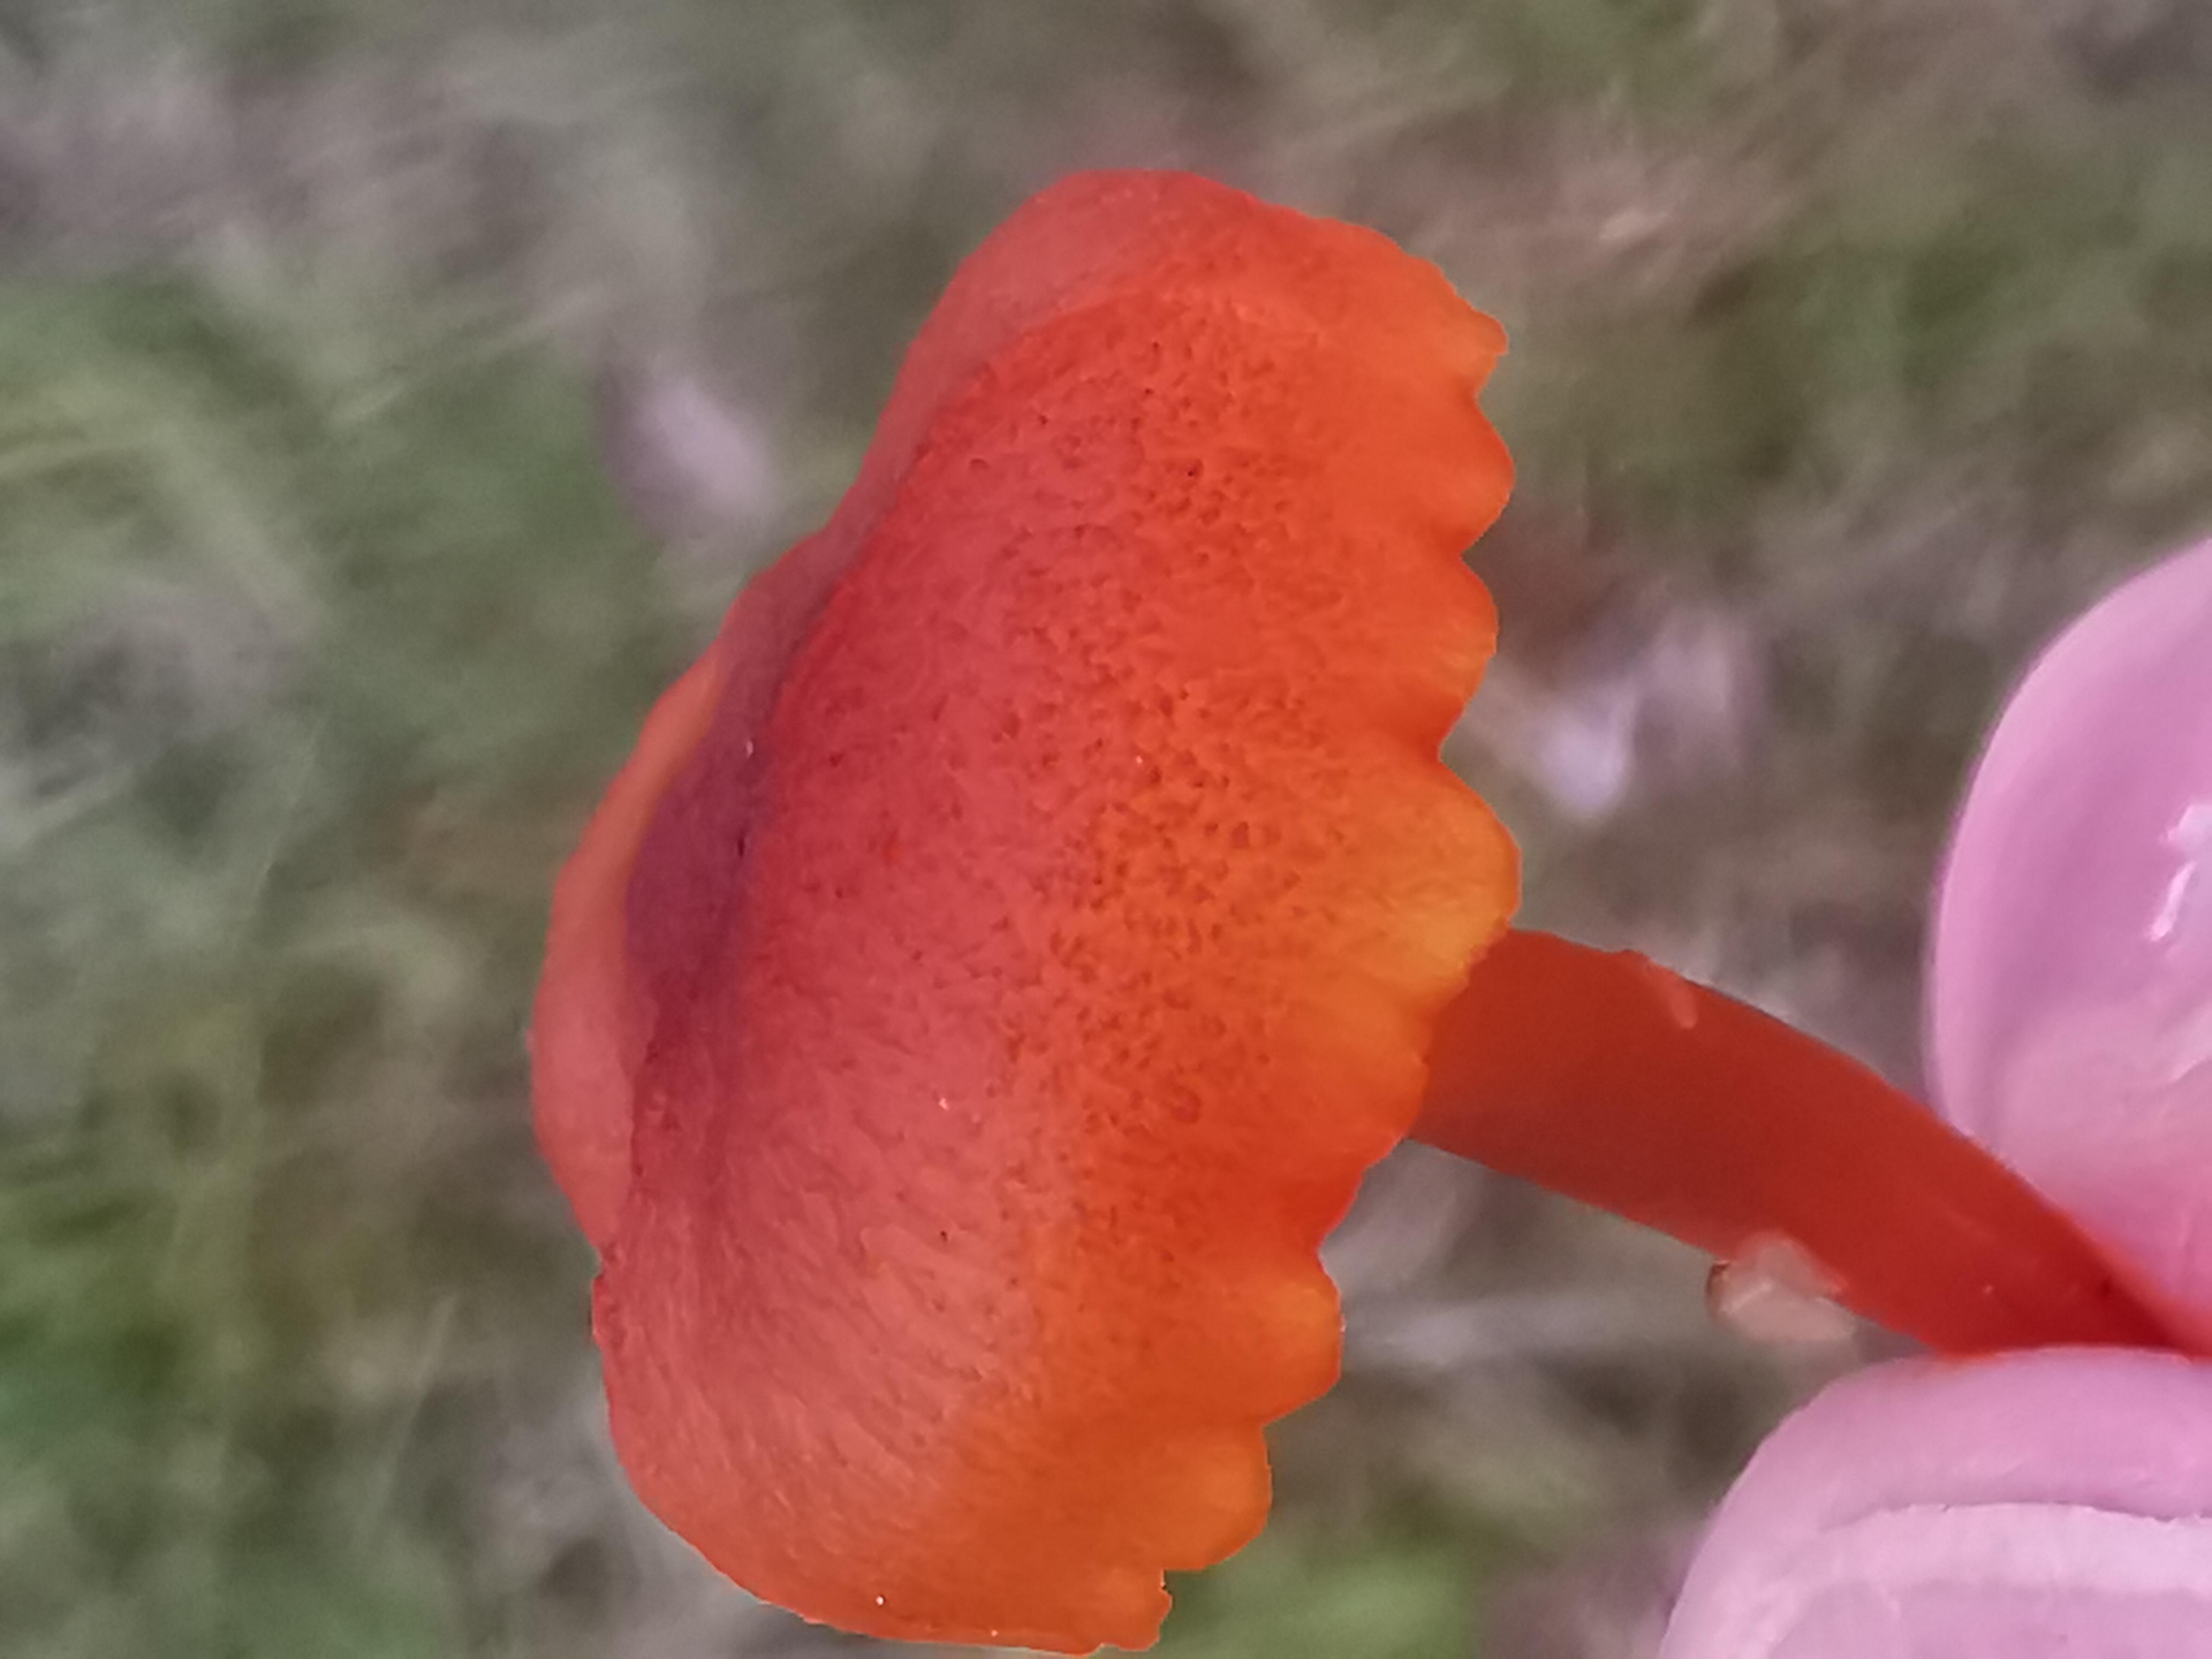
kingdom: Fungi
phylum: Basidiomycota
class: Agaricomycetes
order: Agaricales
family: Hygrophoraceae
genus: Hygrocybe
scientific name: Hygrocybe coccineocrenata
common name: tørvemos-vokshat
